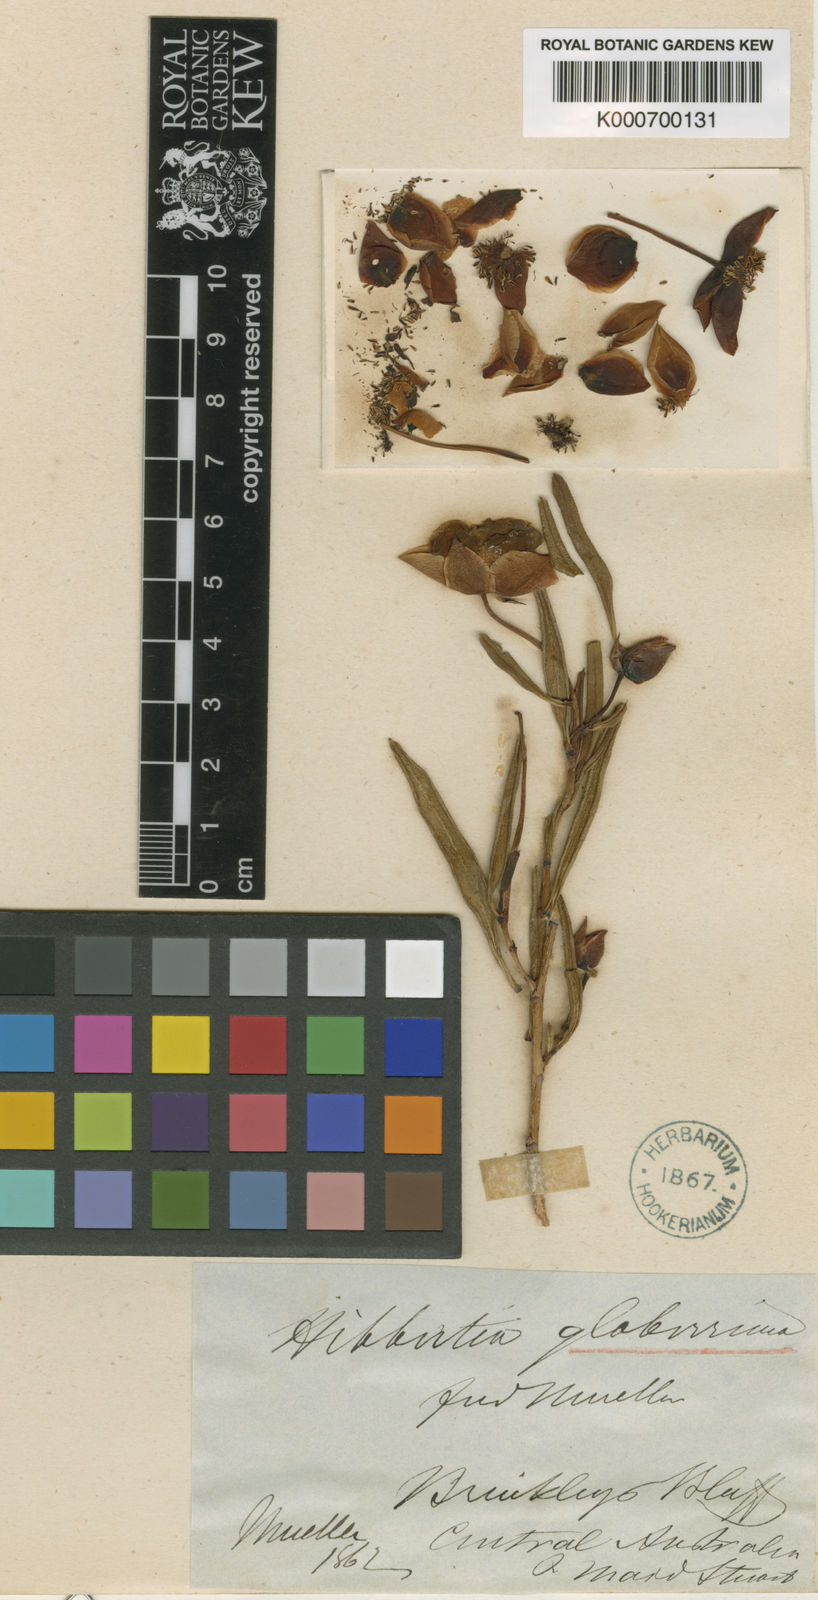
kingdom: Plantae
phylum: Tracheophyta
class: Magnoliopsida
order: Dilleniales
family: Dilleniaceae
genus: Hibbertia
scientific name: Hibbertia glaberrima
